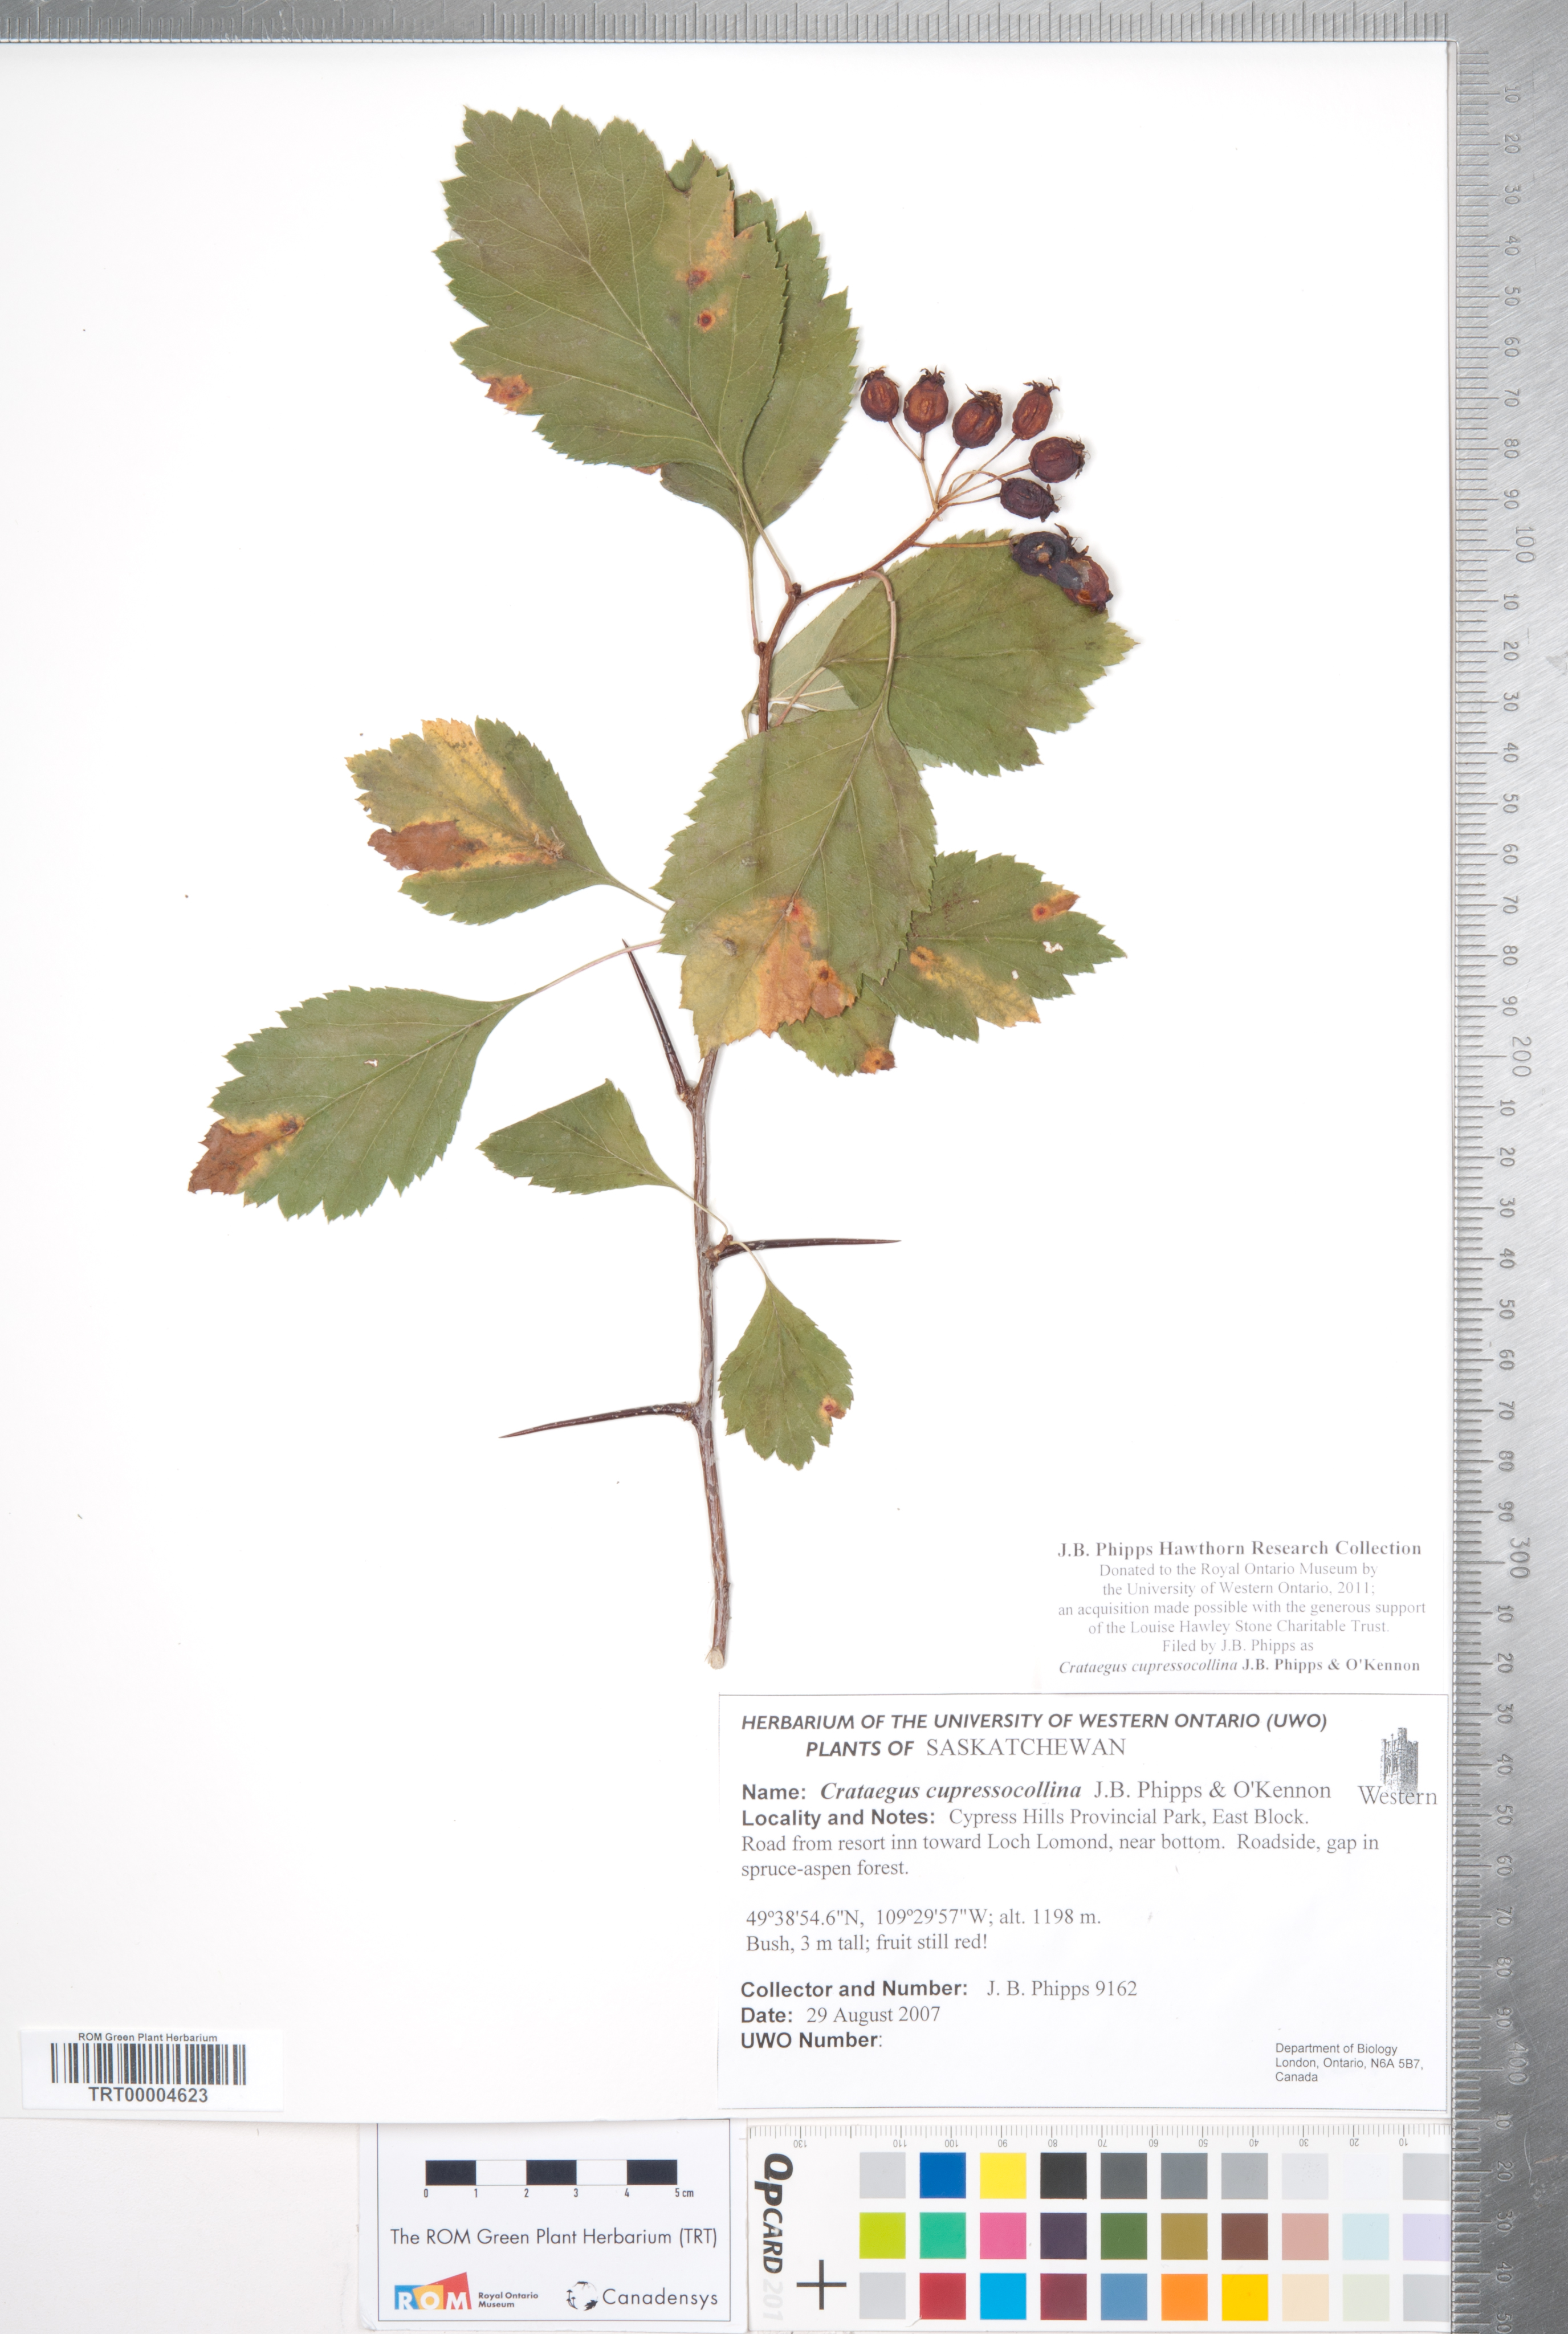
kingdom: Plantae
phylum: Tracheophyta
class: Magnoliopsida
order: Rosales
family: Rosaceae
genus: Crataegus
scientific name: Crataegus cupressocollina
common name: Cypress hills hawthorn
